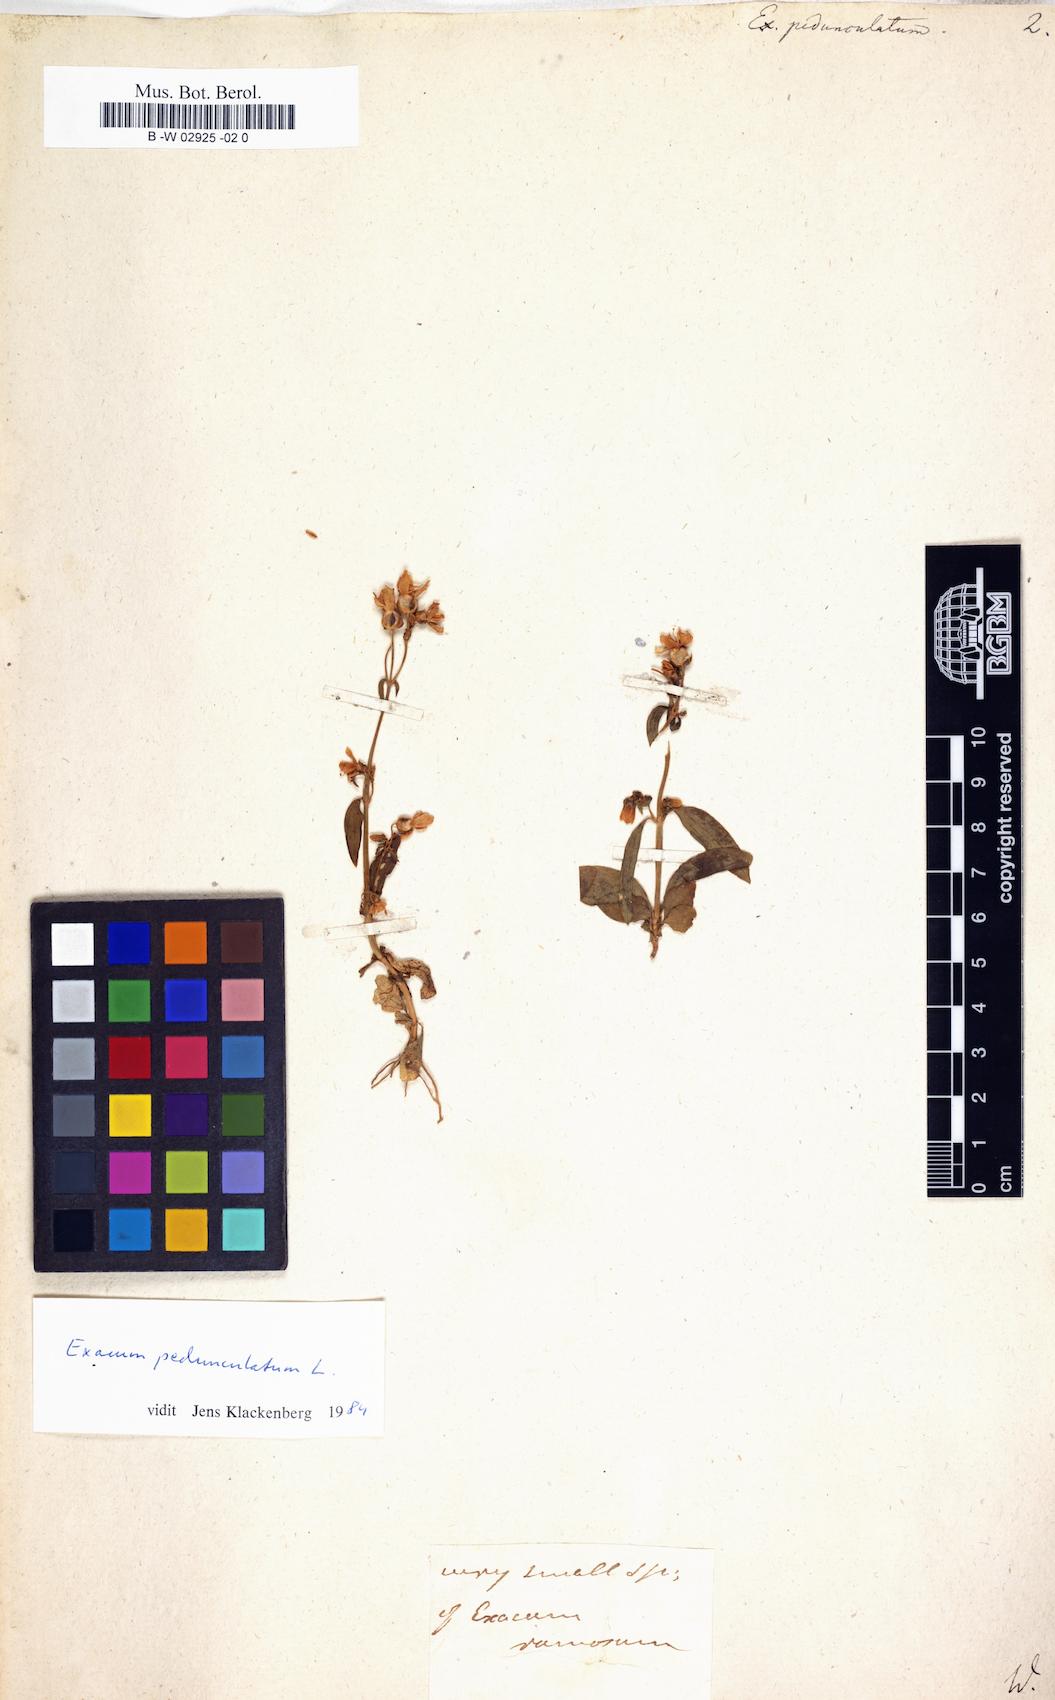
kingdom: Plantae
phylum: Tracheophyta
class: Magnoliopsida
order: Gentianales
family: Gentianaceae
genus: Exacum
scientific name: Exacum pedunculatum
